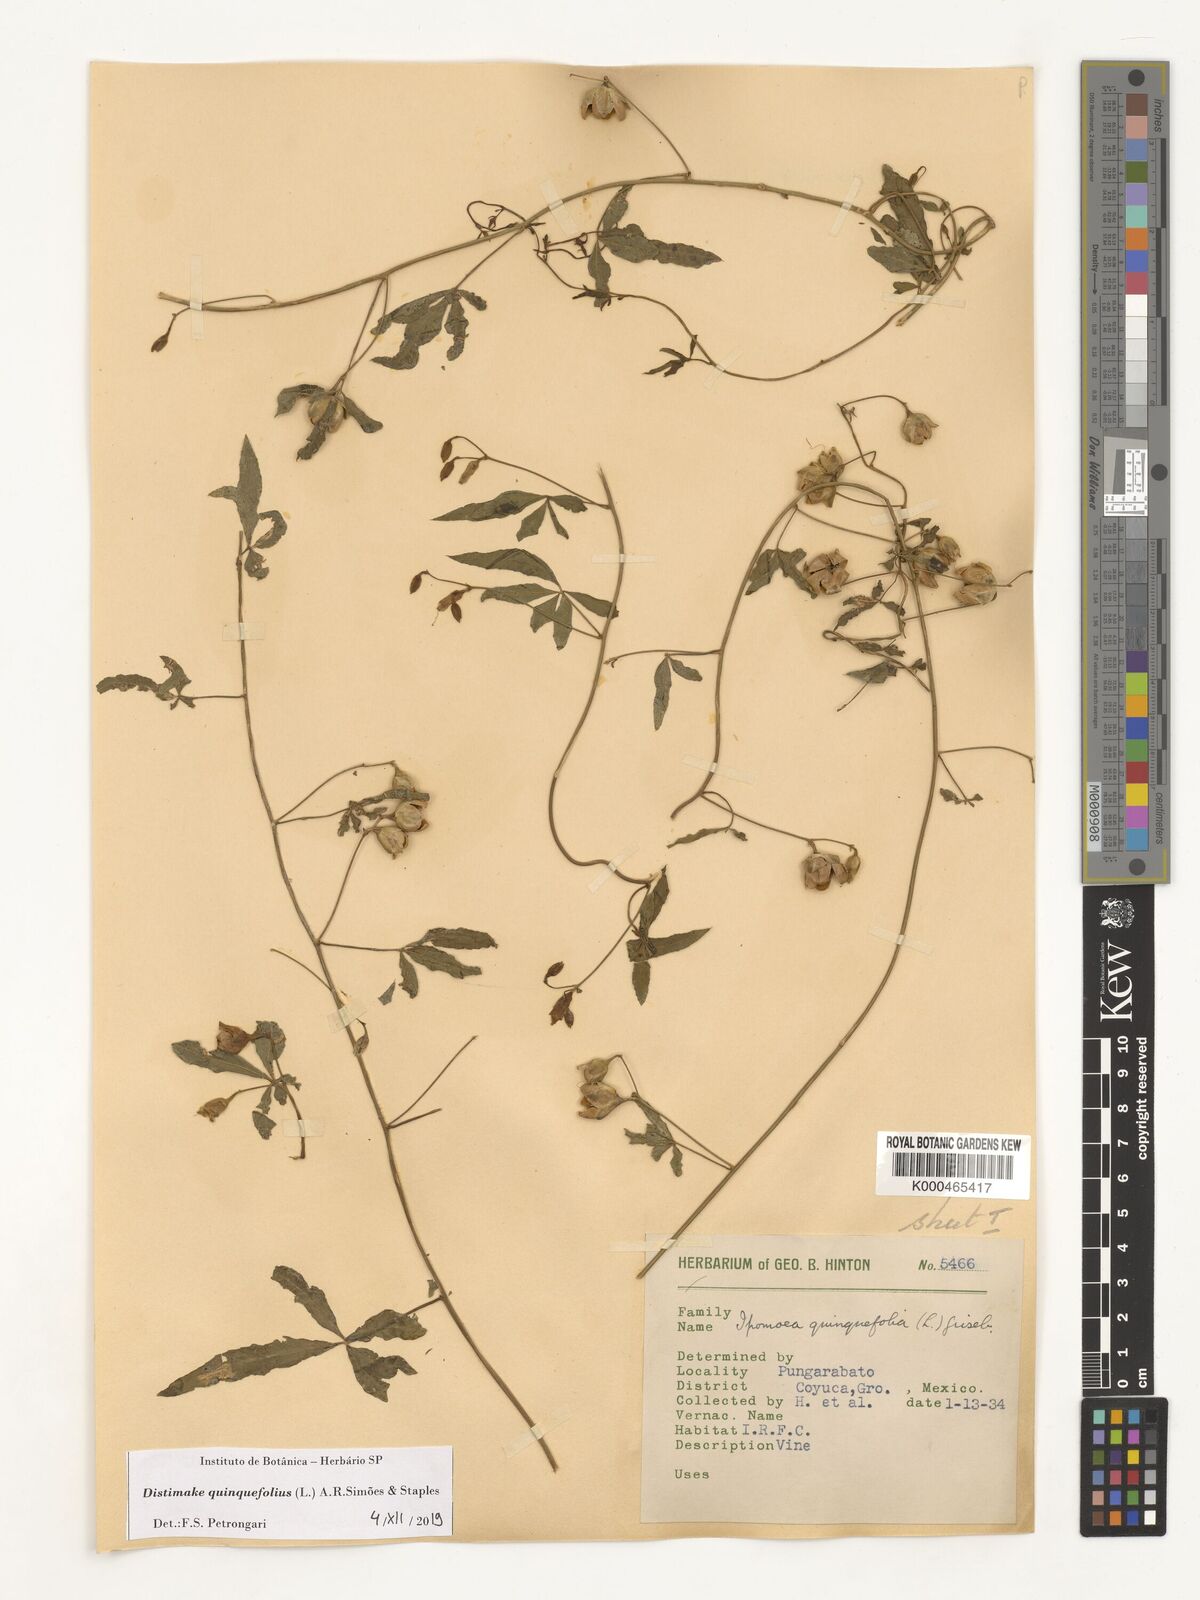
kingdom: Plantae
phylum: Tracheophyta
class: Magnoliopsida
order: Solanales
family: Convolvulaceae
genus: Distimake
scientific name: Distimake quinquefolius
